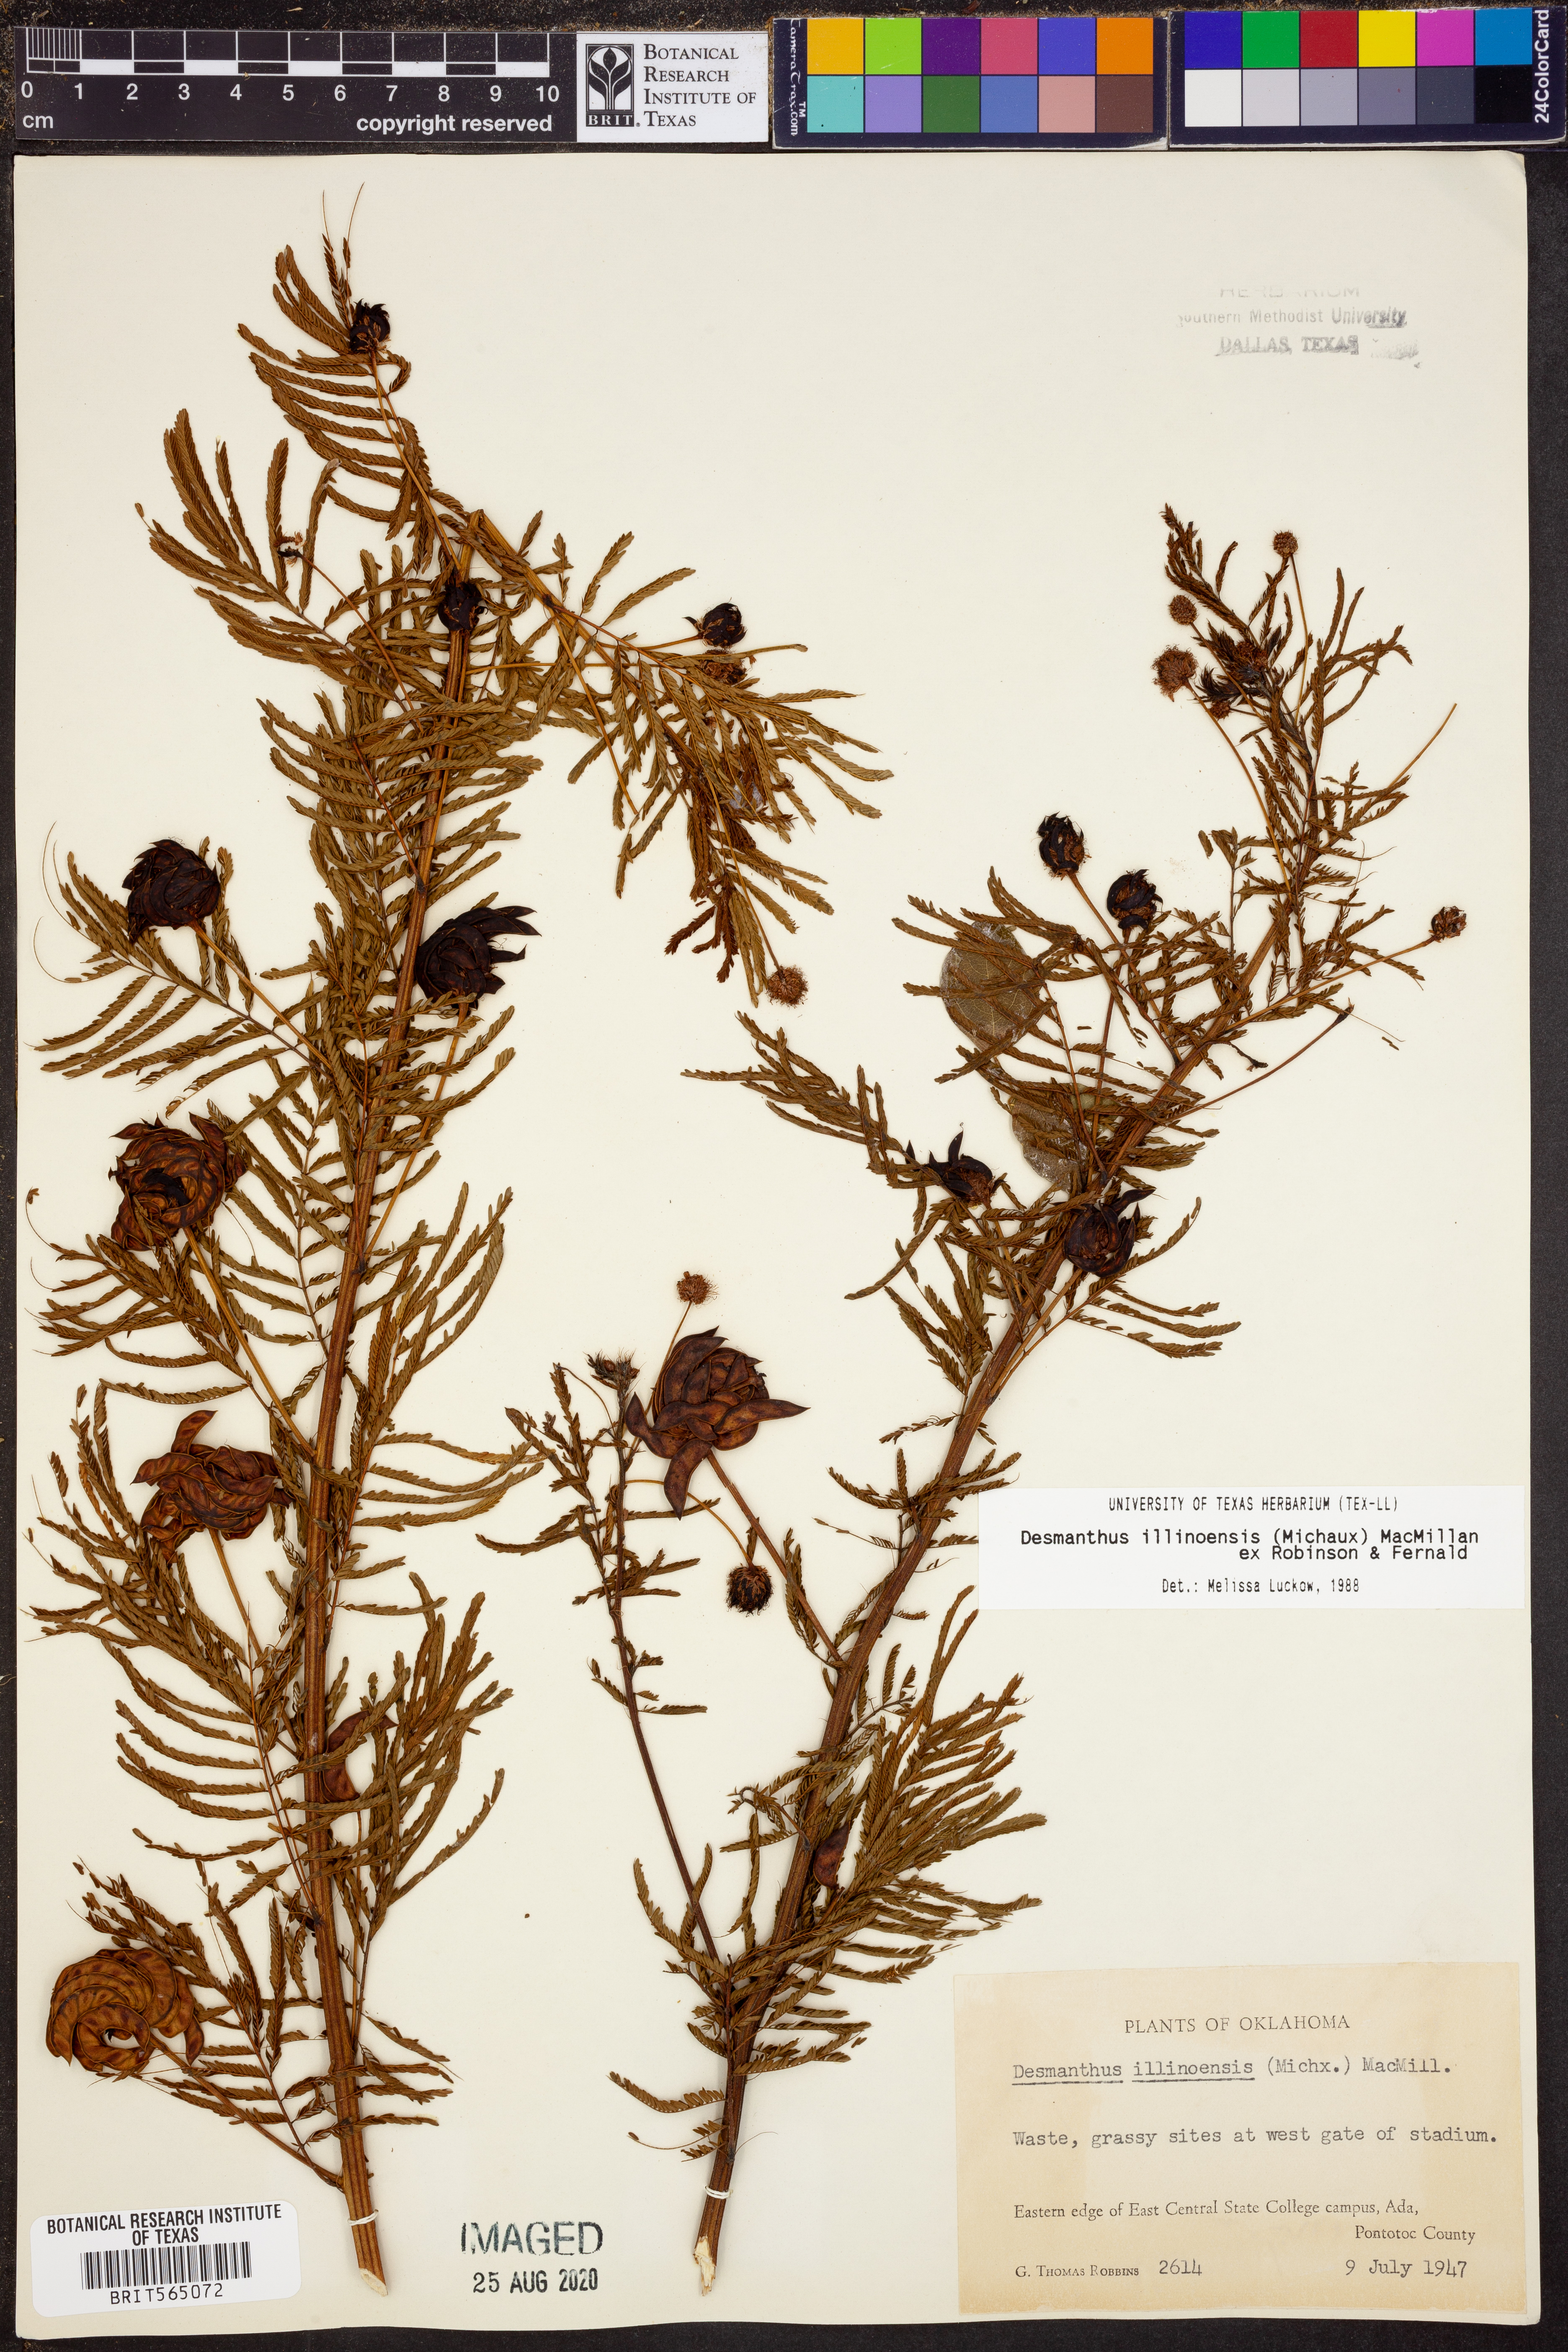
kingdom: Plantae
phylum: Tracheophyta
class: Magnoliopsida
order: Fabales
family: Fabaceae
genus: Desmanthus
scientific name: Desmanthus illinoensis
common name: Illinois bundle-flower
